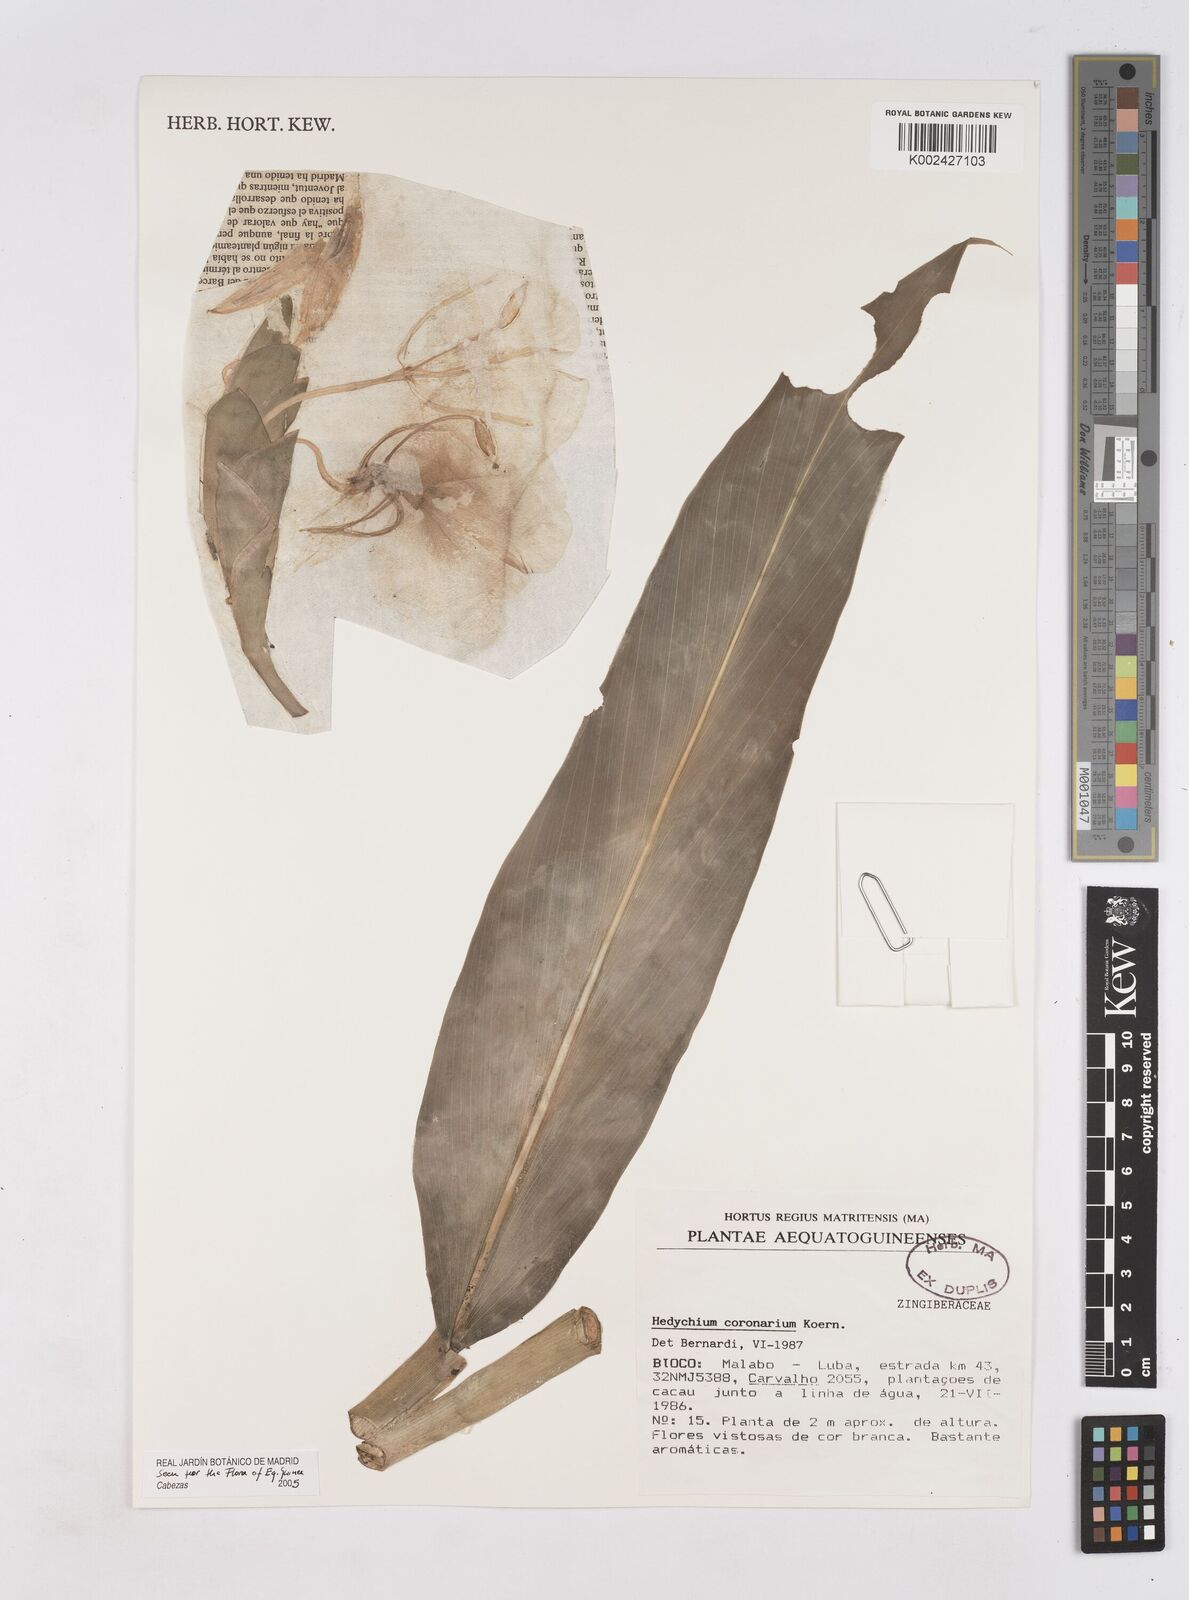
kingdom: Plantae
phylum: Tracheophyta
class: Liliopsida
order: Zingiberales
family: Zingiberaceae
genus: Hedychium
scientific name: Hedychium coronarium
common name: White garland-lily
